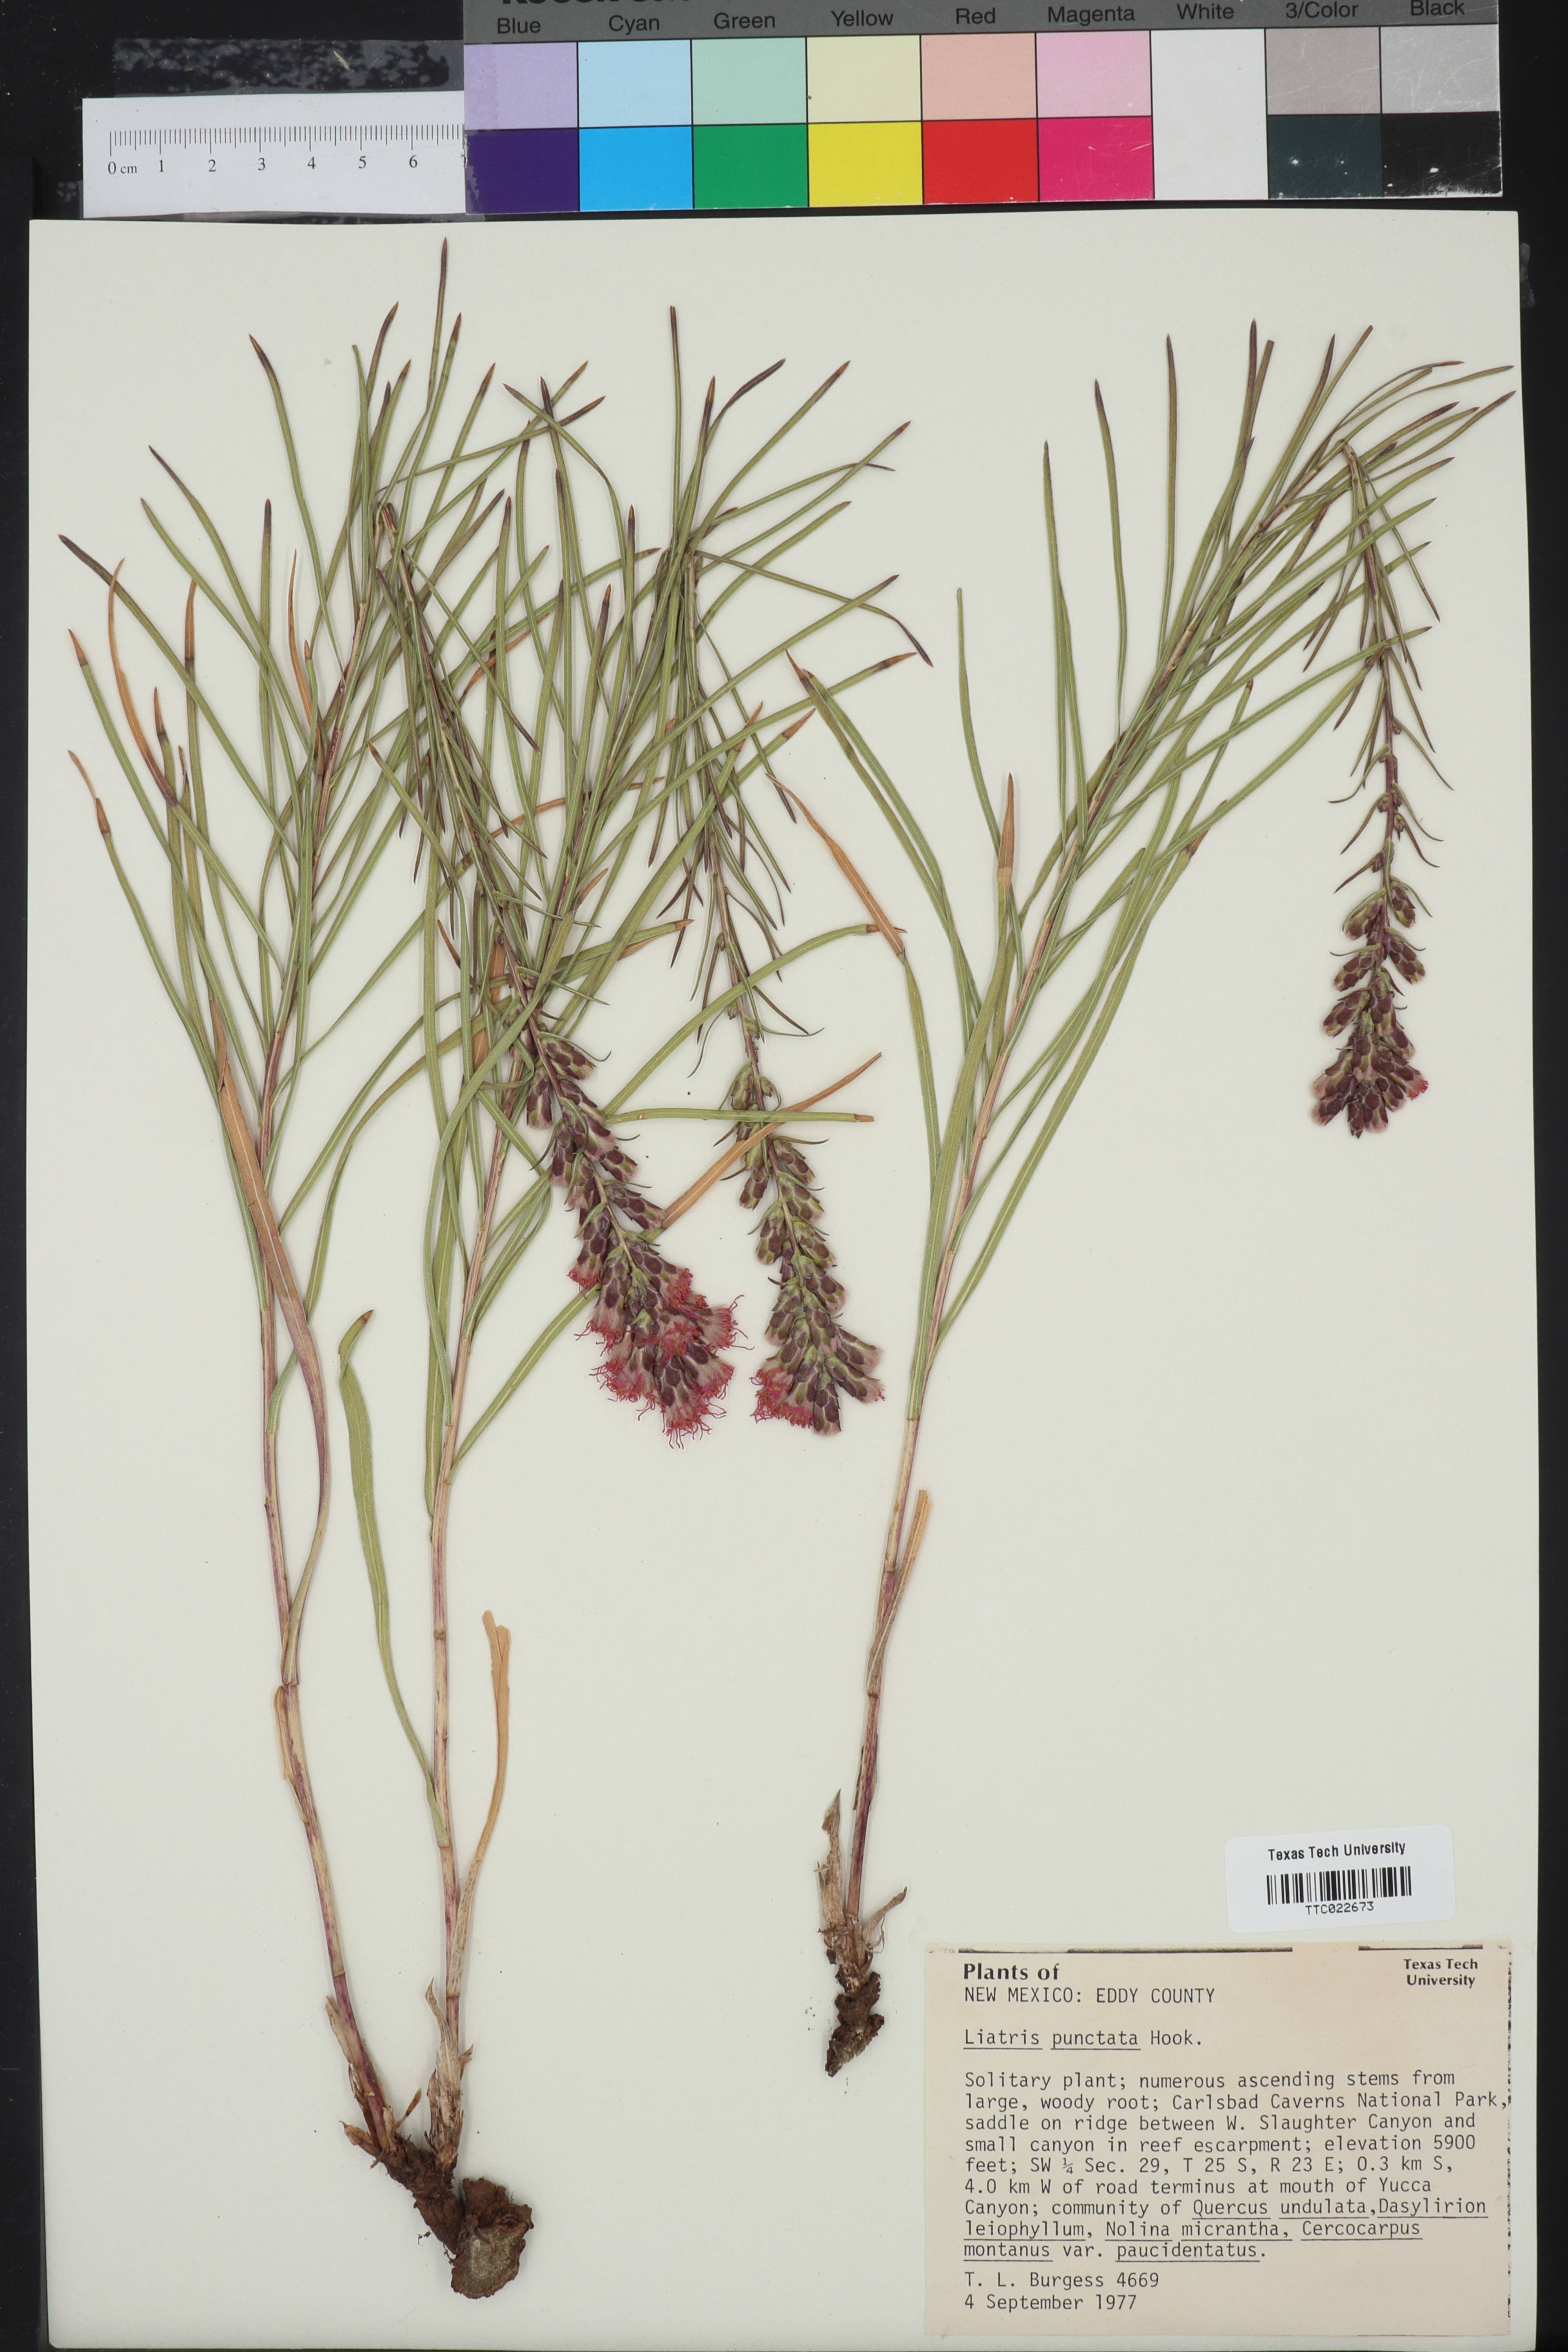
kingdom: Plantae
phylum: Tracheophyta
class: Magnoliopsida
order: Asterales
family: Asteraceae
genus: Liatris
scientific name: Liatris punctata
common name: Dotted gayfeather
